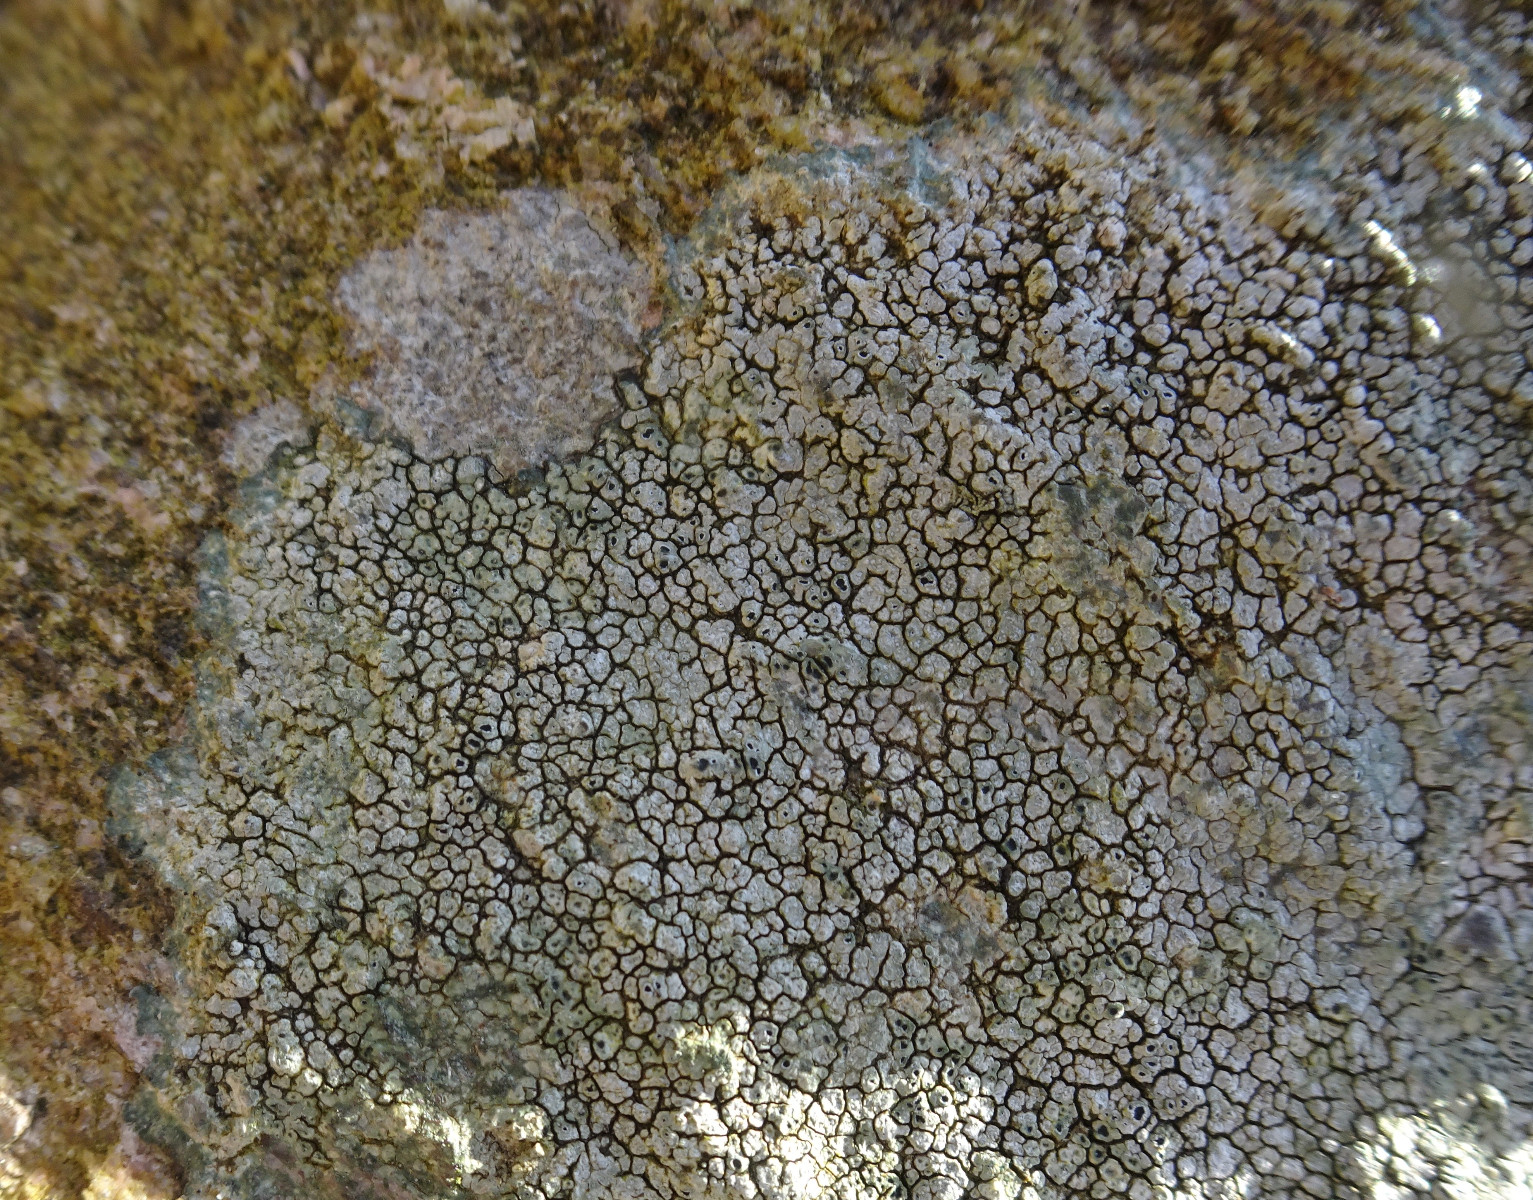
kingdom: Fungi
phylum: Ascomycota
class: Lecanoromycetes
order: Pertusariales
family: Megasporaceae
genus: Circinaria
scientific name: Circinaria
